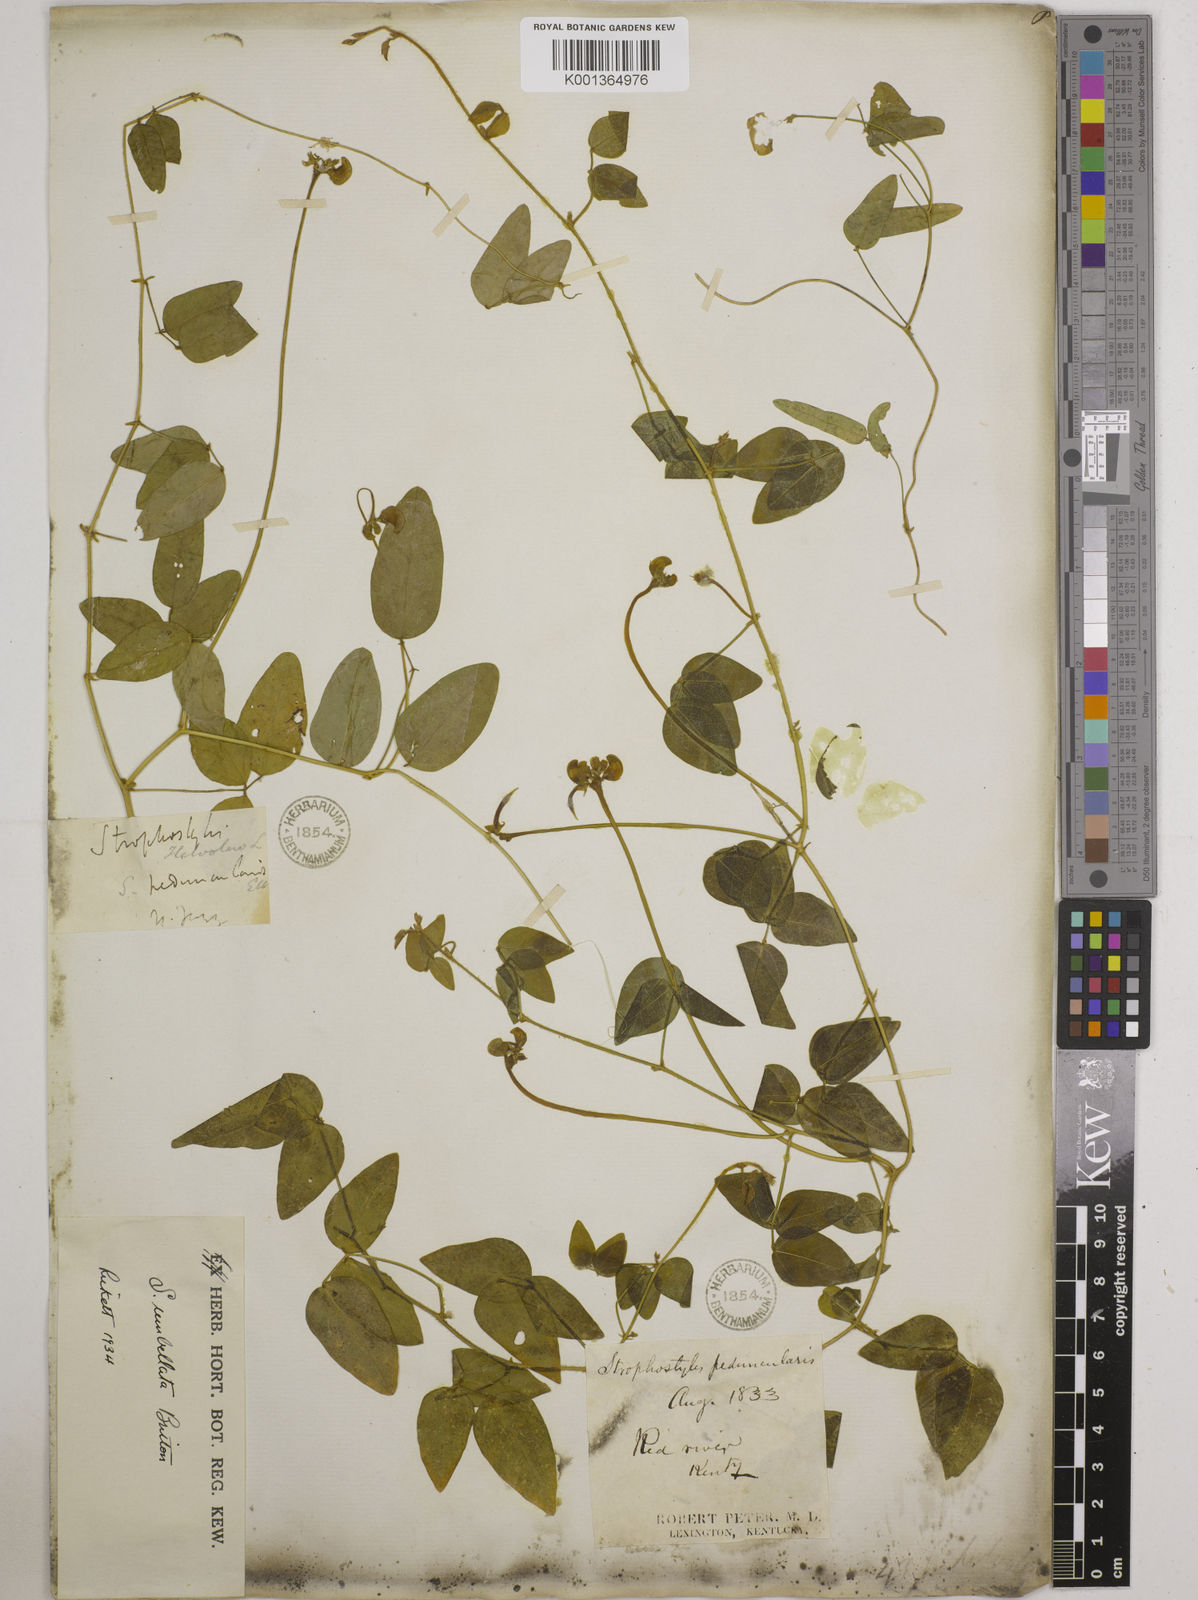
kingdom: Plantae
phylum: Tracheophyta
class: Magnoliopsida
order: Fabales
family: Fabaceae
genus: Strophostyles
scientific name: Strophostyles umbellata
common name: Perennial wild bean
